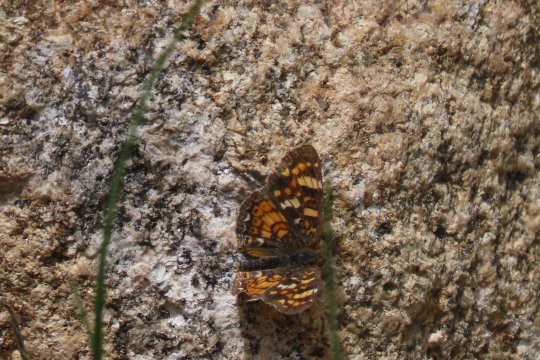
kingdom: Animalia
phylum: Arthropoda
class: Insecta
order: Lepidoptera
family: Nymphalidae
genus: Phyciodes
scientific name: Phyciodes tharos
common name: Field Crescent
